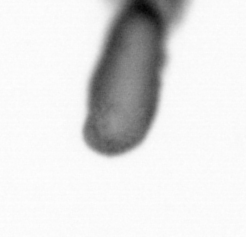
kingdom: Animalia
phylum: Arthropoda
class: Copepoda
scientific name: Copepoda
